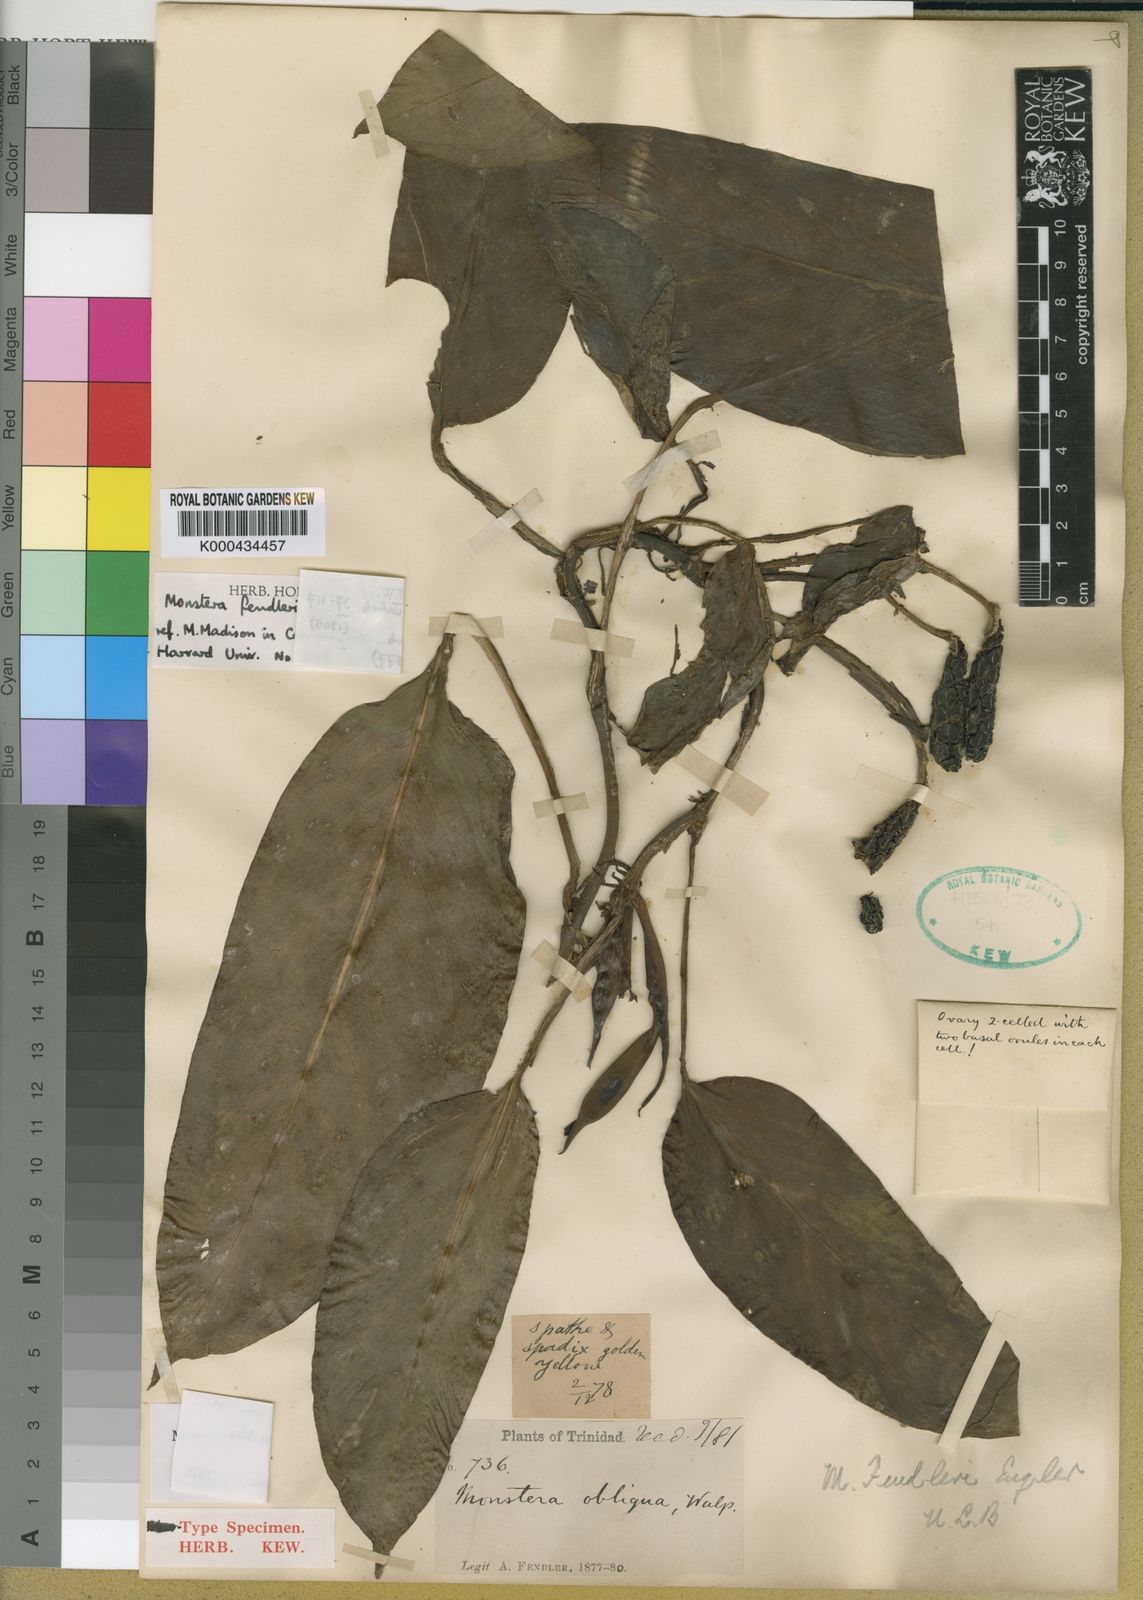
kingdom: Plantae
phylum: Tracheophyta
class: Liliopsida
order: Alismatales
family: Araceae
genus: Monstera
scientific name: Monstera obliqua
